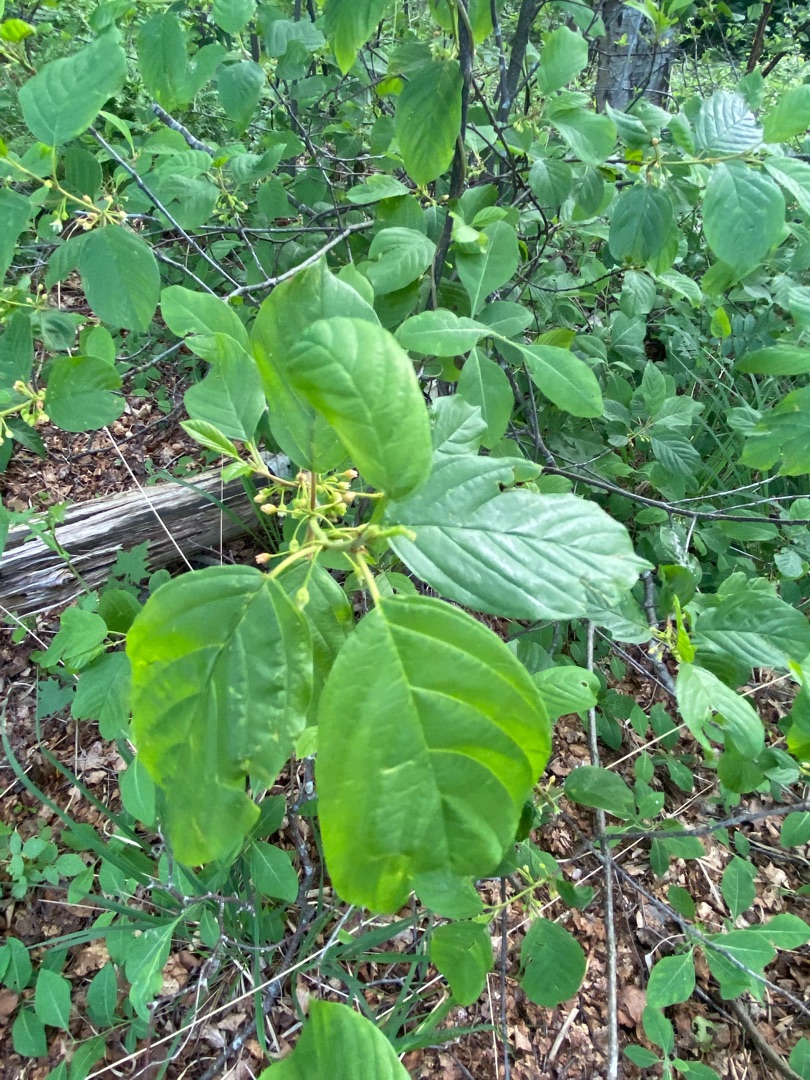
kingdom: Plantae
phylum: Tracheophyta
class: Magnoliopsida
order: Rosales
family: Rhamnaceae
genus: Frangula
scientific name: Frangula alnus
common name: Tørst
